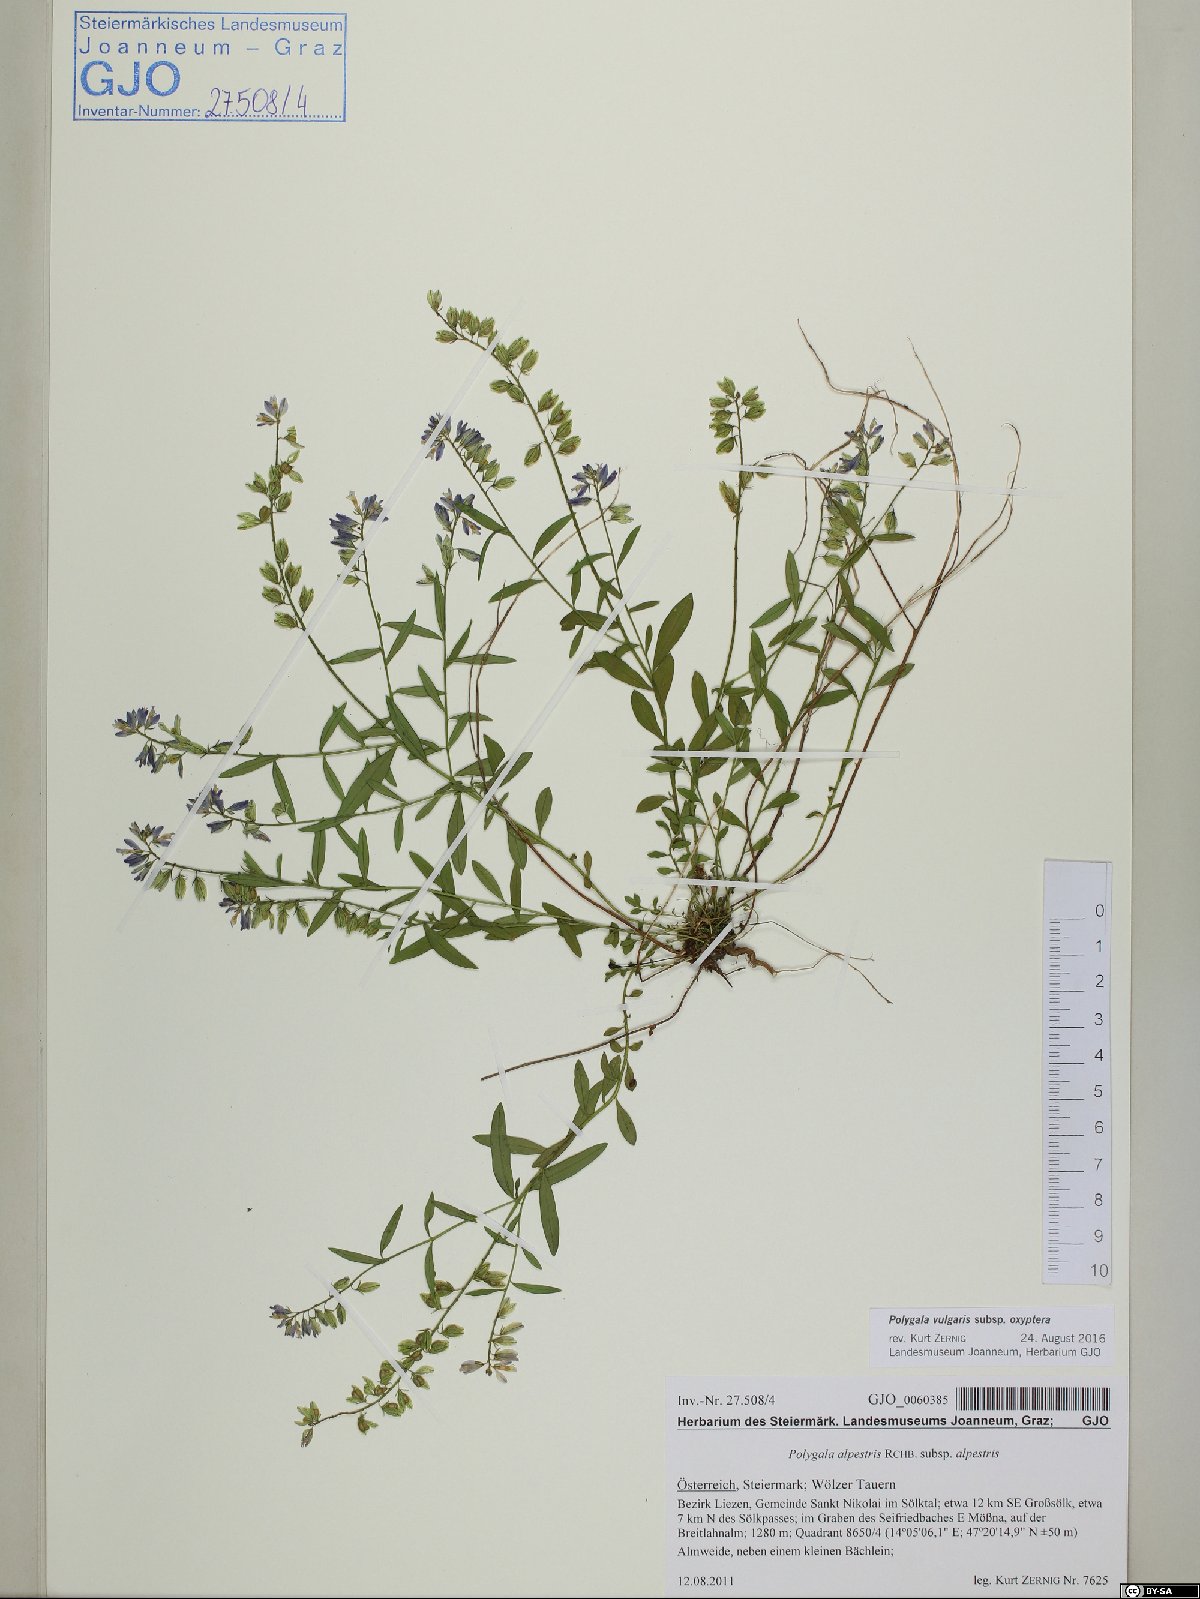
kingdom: Plantae
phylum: Tracheophyta
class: Magnoliopsida
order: Fabales
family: Polygalaceae
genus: Polygala
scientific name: Polygala vulgaris
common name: Common milkwort
